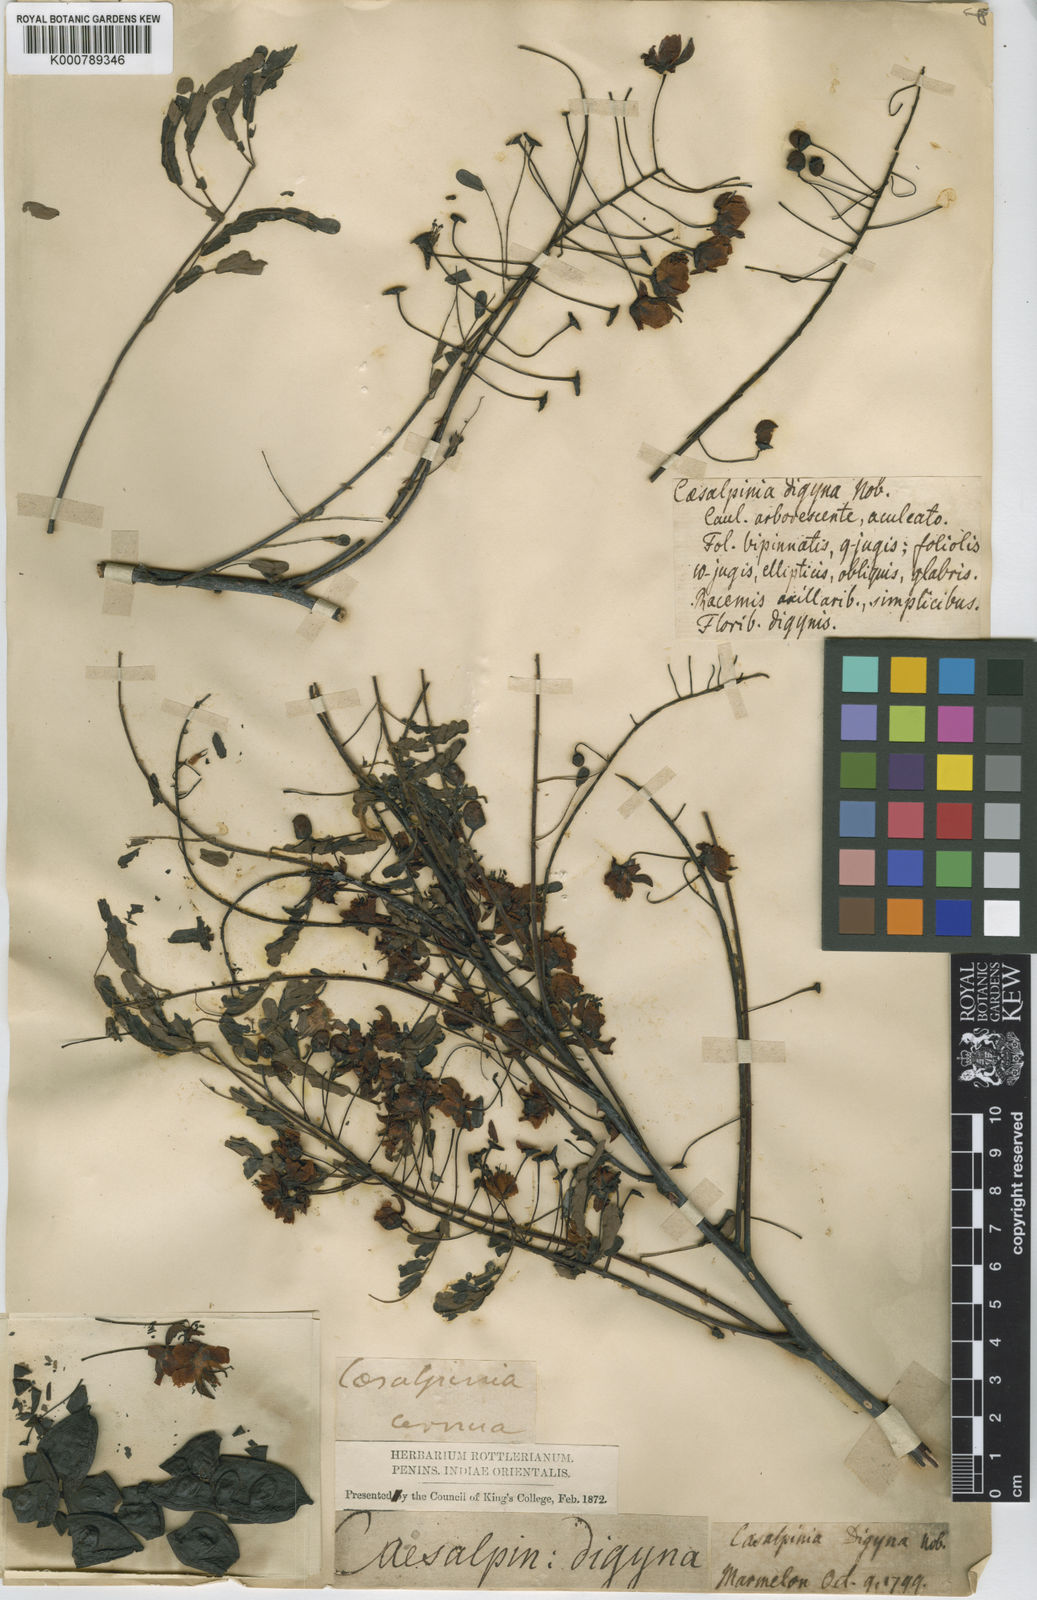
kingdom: Plantae
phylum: Tracheophyta
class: Magnoliopsida
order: Fabales
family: Fabaceae
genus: Moullava
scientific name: Moullava digyna
